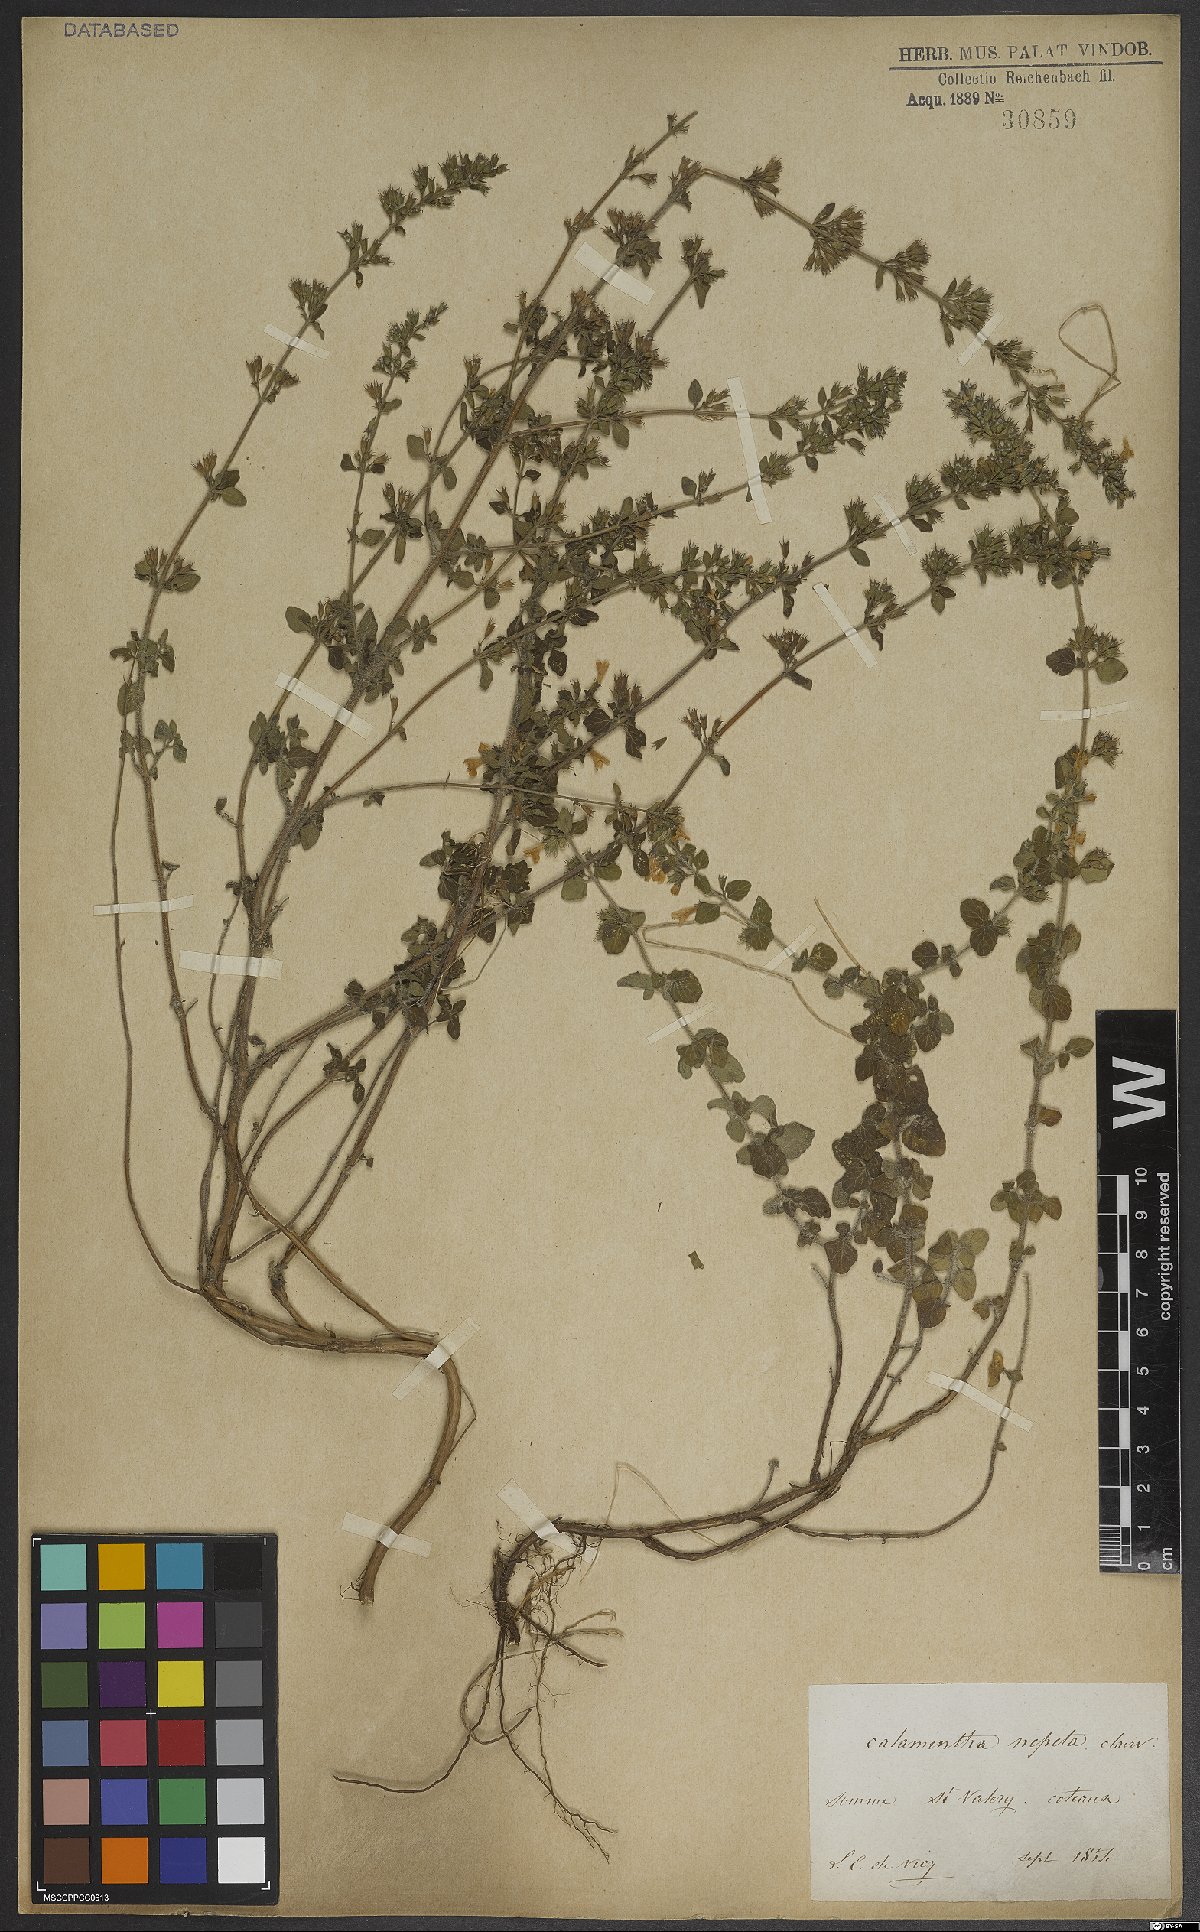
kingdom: Plantae
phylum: Tracheophyta
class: Magnoliopsida
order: Lamiales
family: Lamiaceae
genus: Clinopodium
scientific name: Clinopodium nepeta
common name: Lesser calamint
